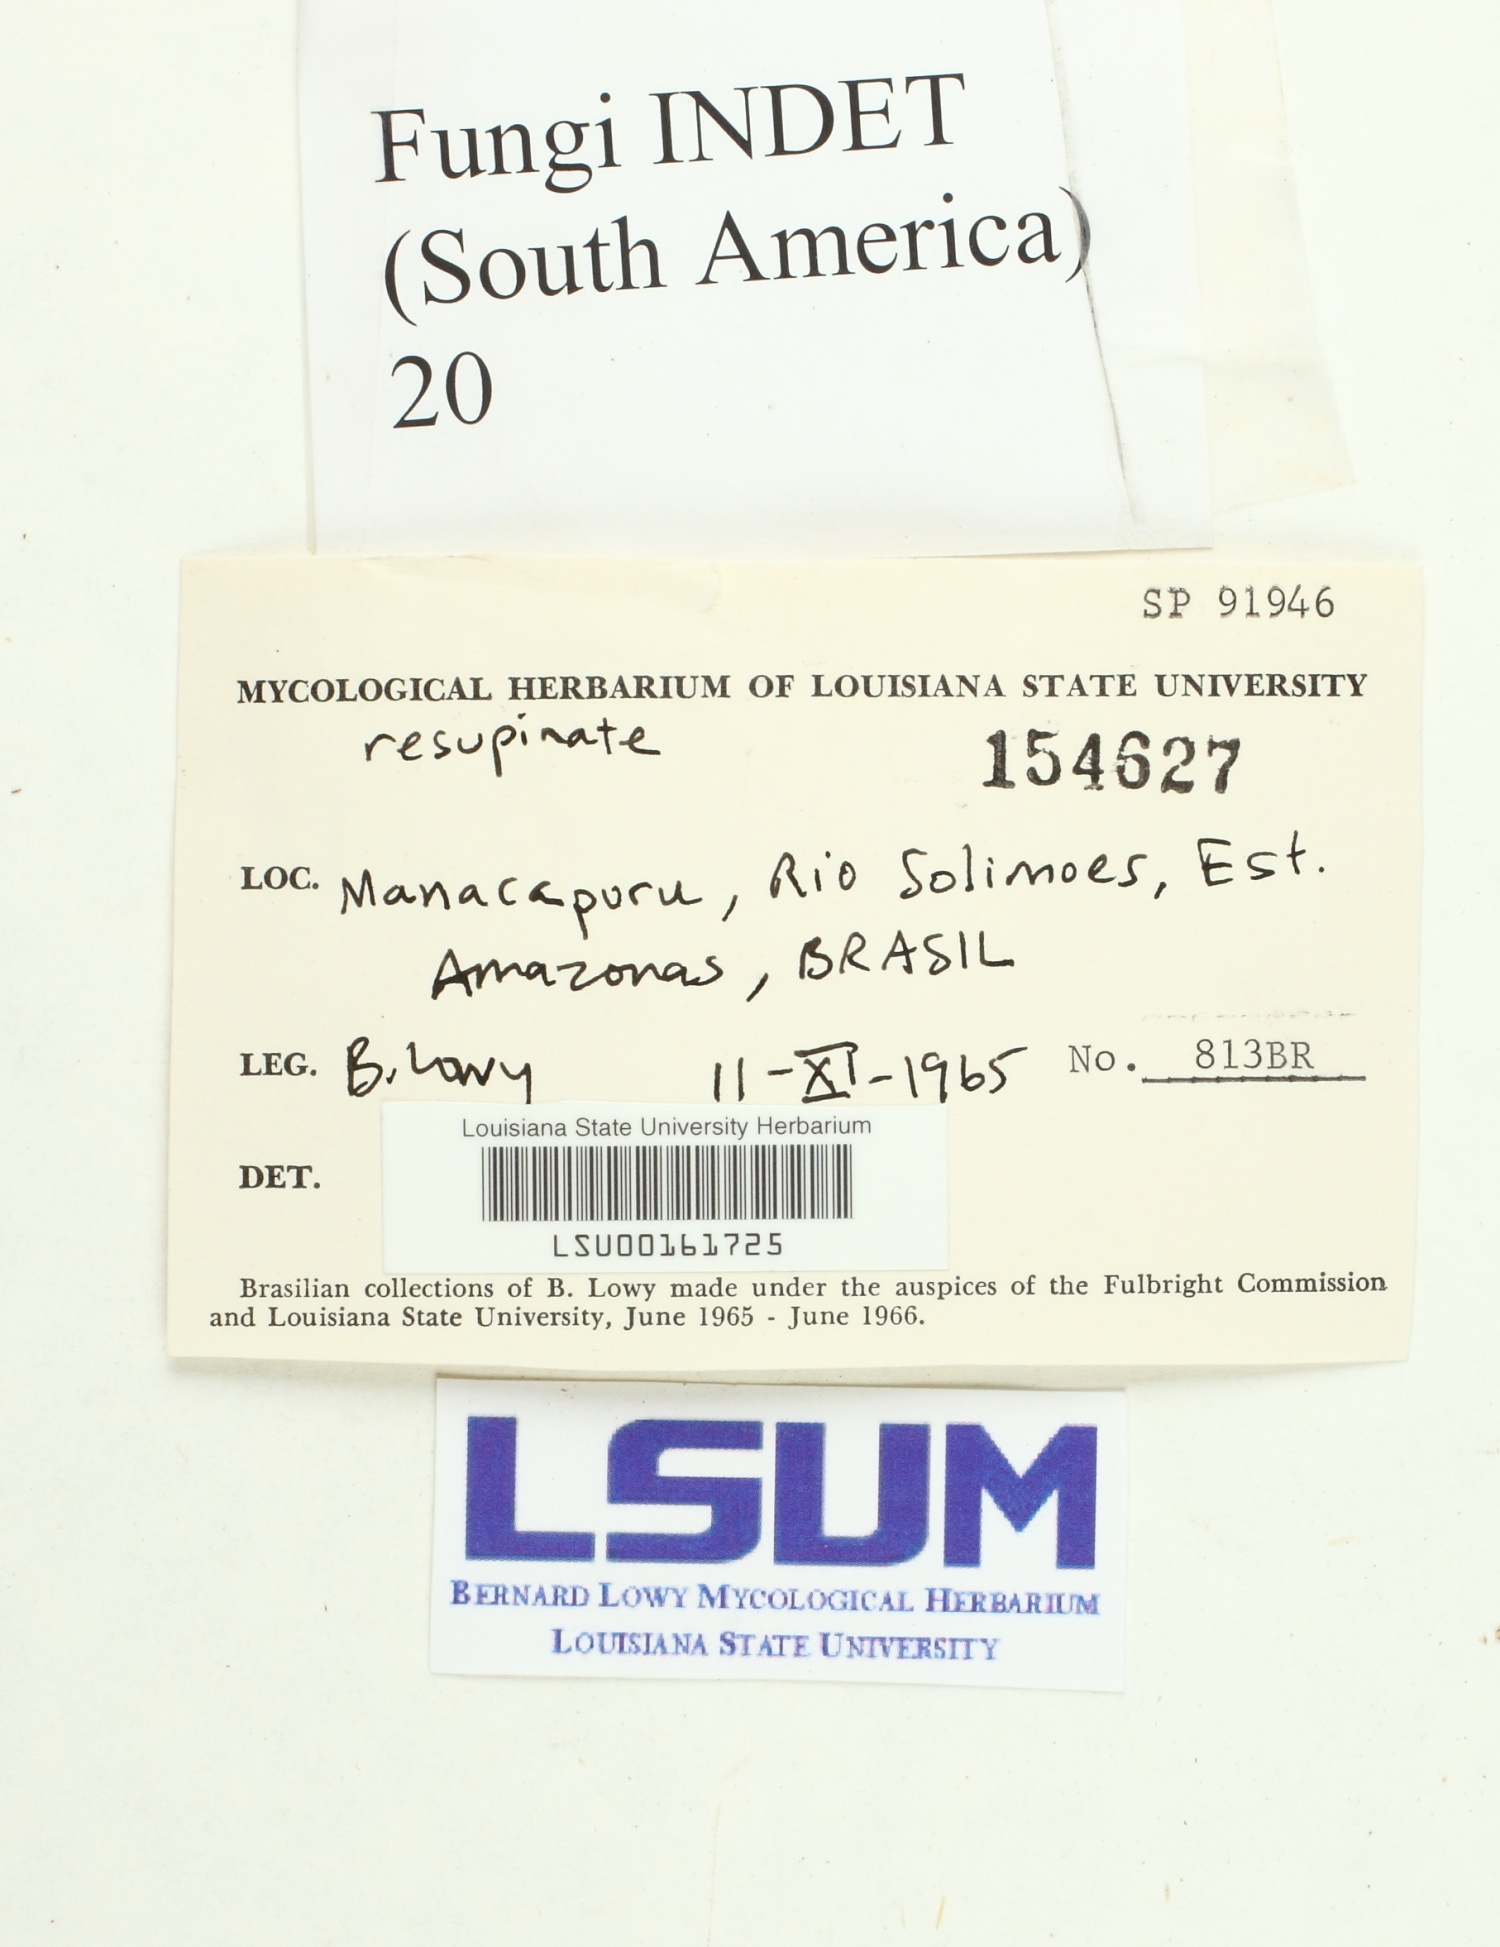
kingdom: Fungi
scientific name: Fungi
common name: Fungi
